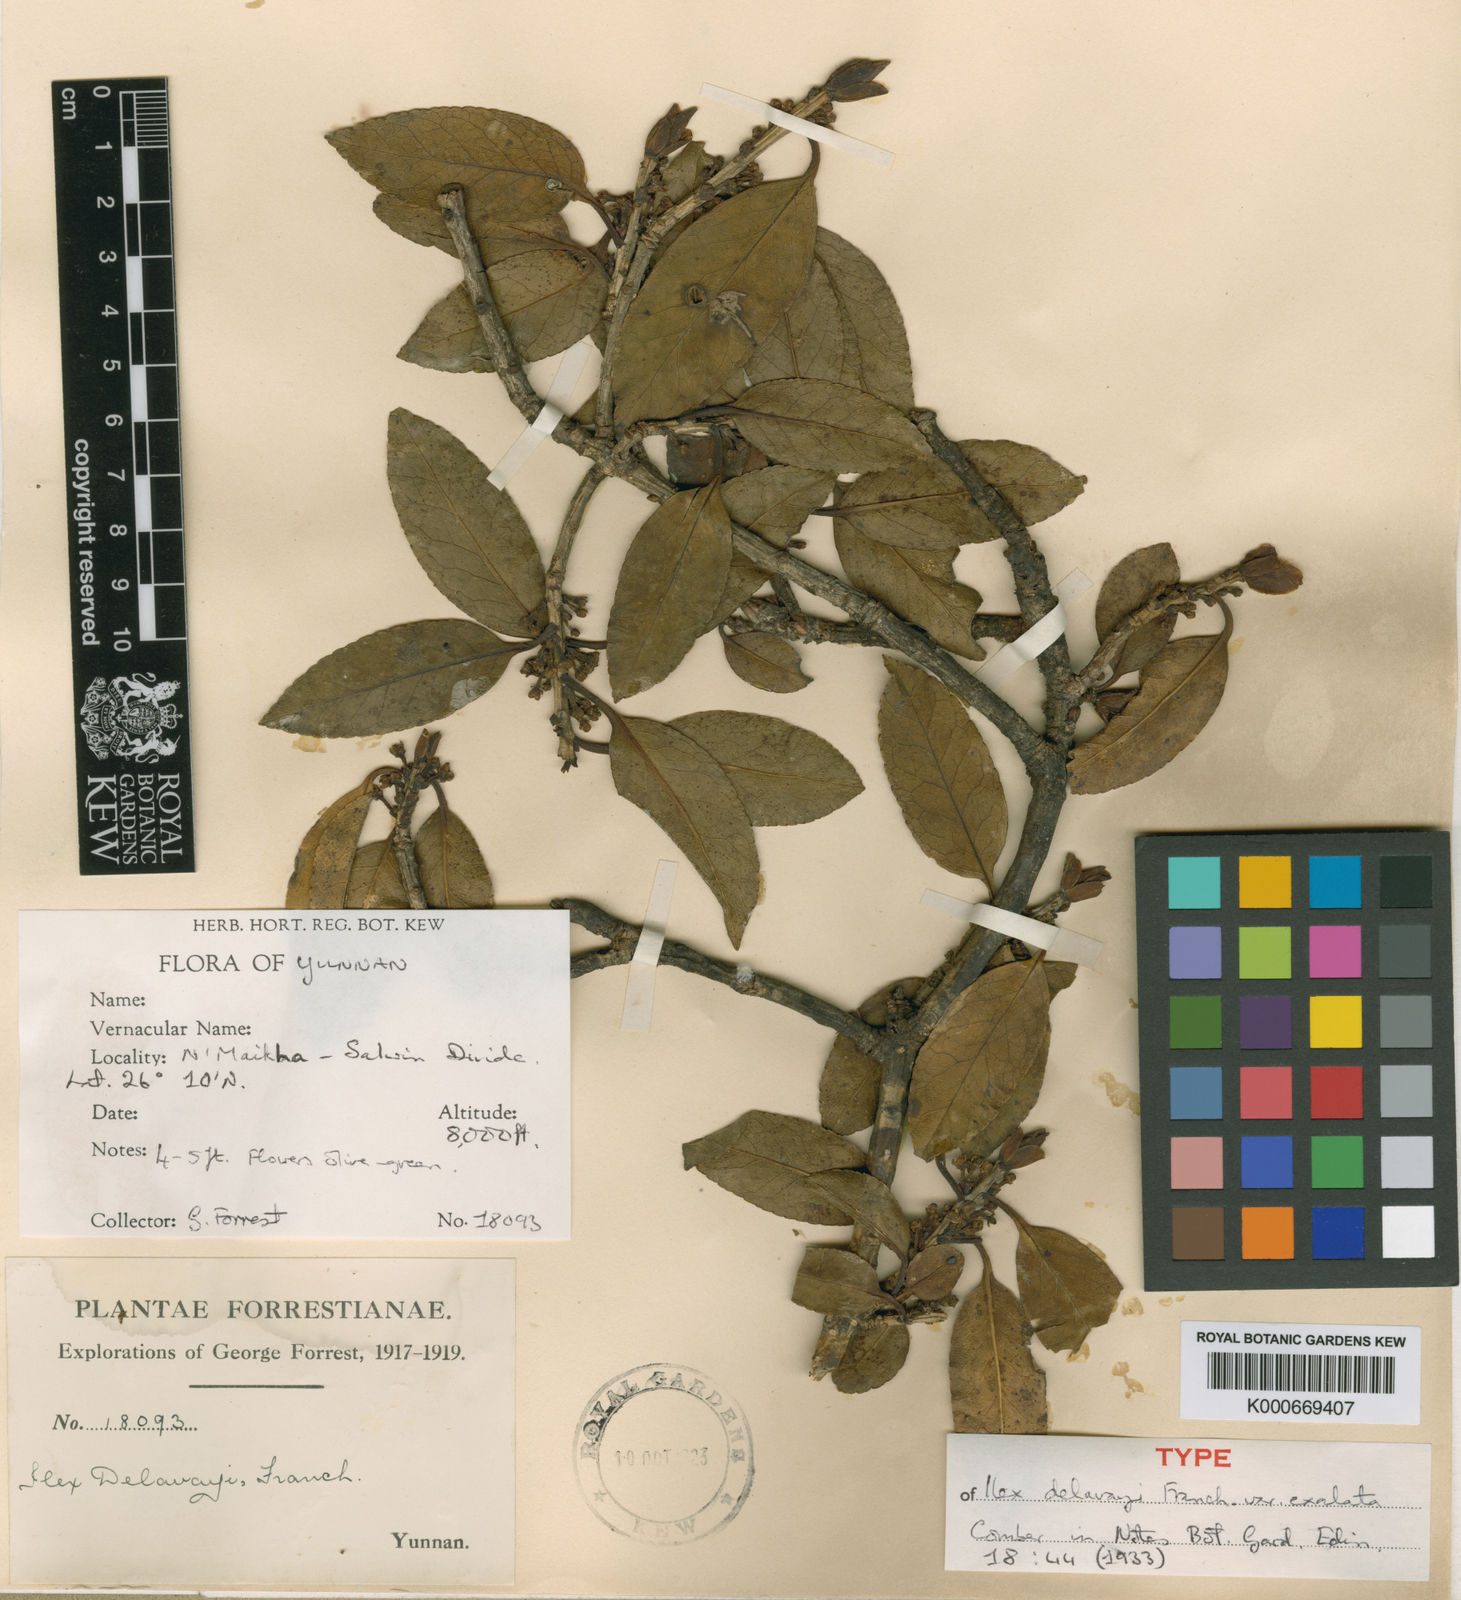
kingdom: Plantae
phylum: Tracheophyta
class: Magnoliopsida
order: Aquifoliales
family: Aquifoliaceae
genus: Ilex
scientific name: Ilex delavayi
